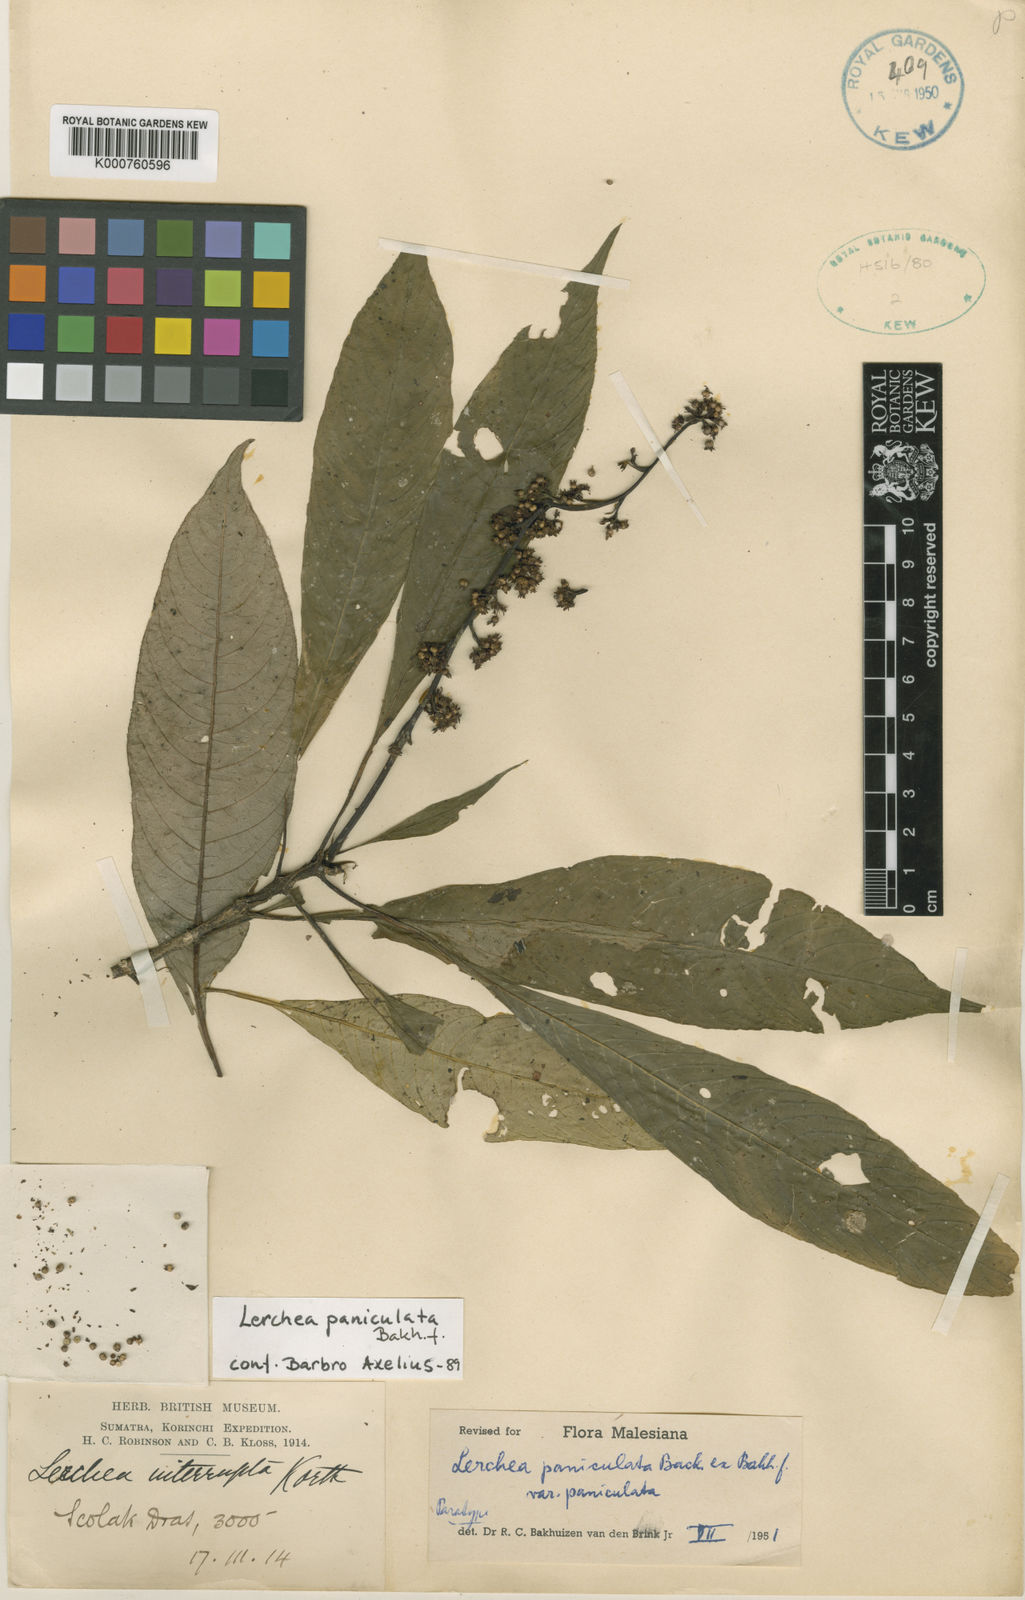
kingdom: Plantae
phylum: Tracheophyta
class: Magnoliopsida
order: Gentianales
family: Rubiaceae
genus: Lerchea
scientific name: Lerchea paniculata
